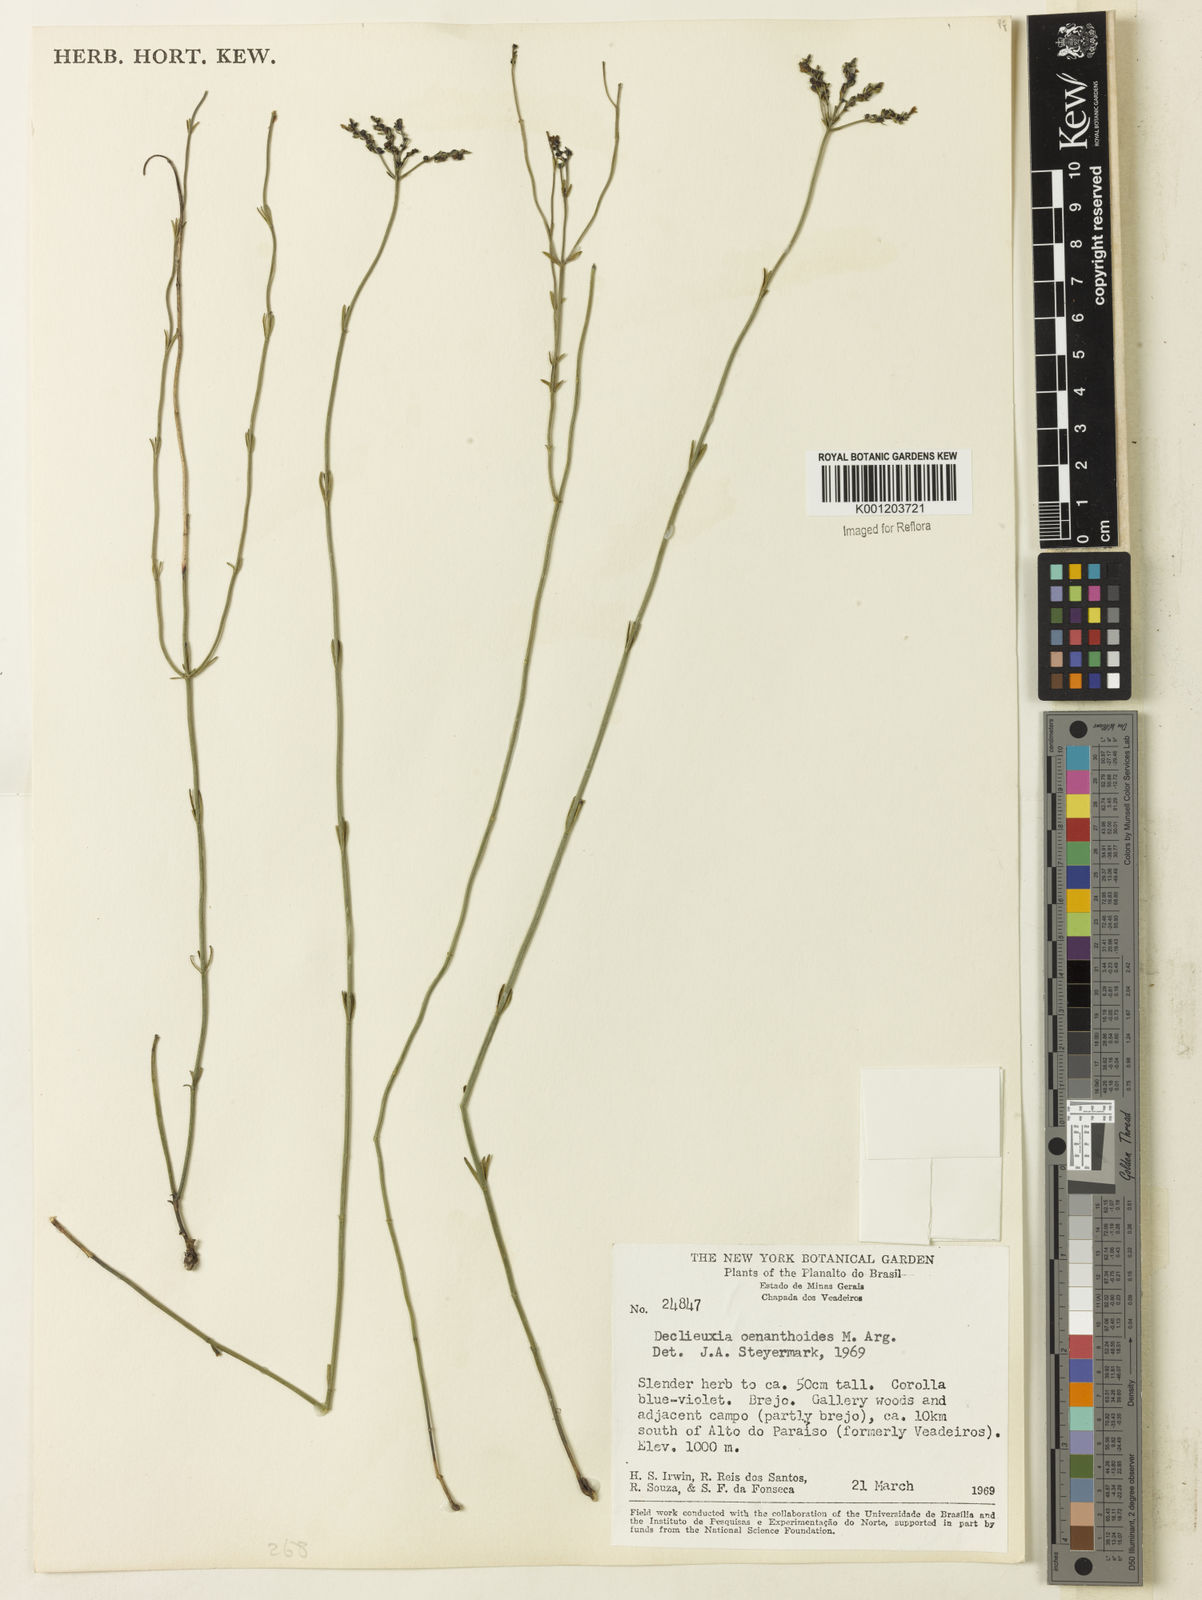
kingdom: Plantae
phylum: Tracheophyta
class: Magnoliopsida
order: Gentianales
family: Rubiaceae
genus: Declieuxia
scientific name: Declieuxia
